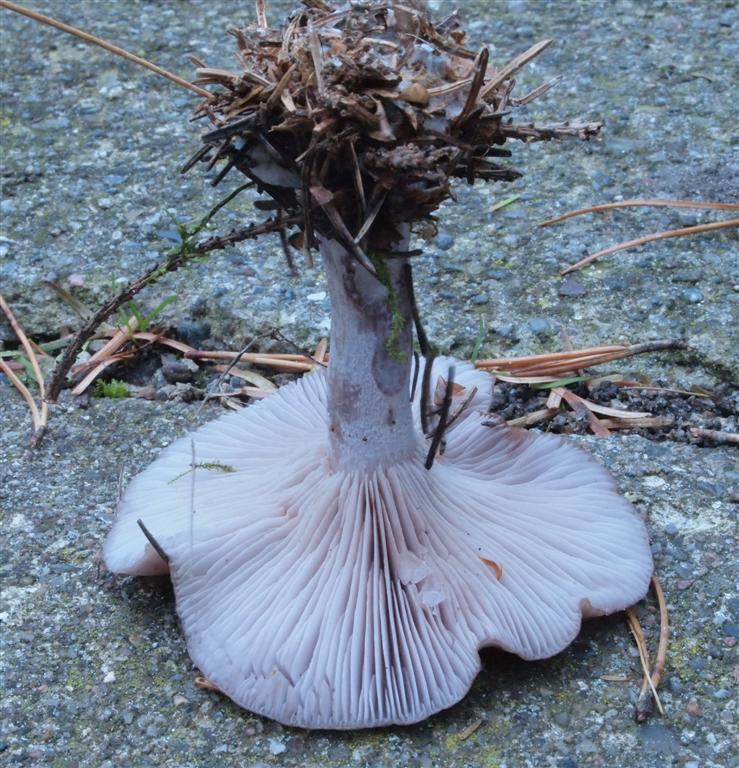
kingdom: Fungi
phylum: Basidiomycota
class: Agaricomycetes
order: Agaricales
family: Tricholomataceae
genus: Lepista
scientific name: Lepista nuda
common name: violet hekseringshat
